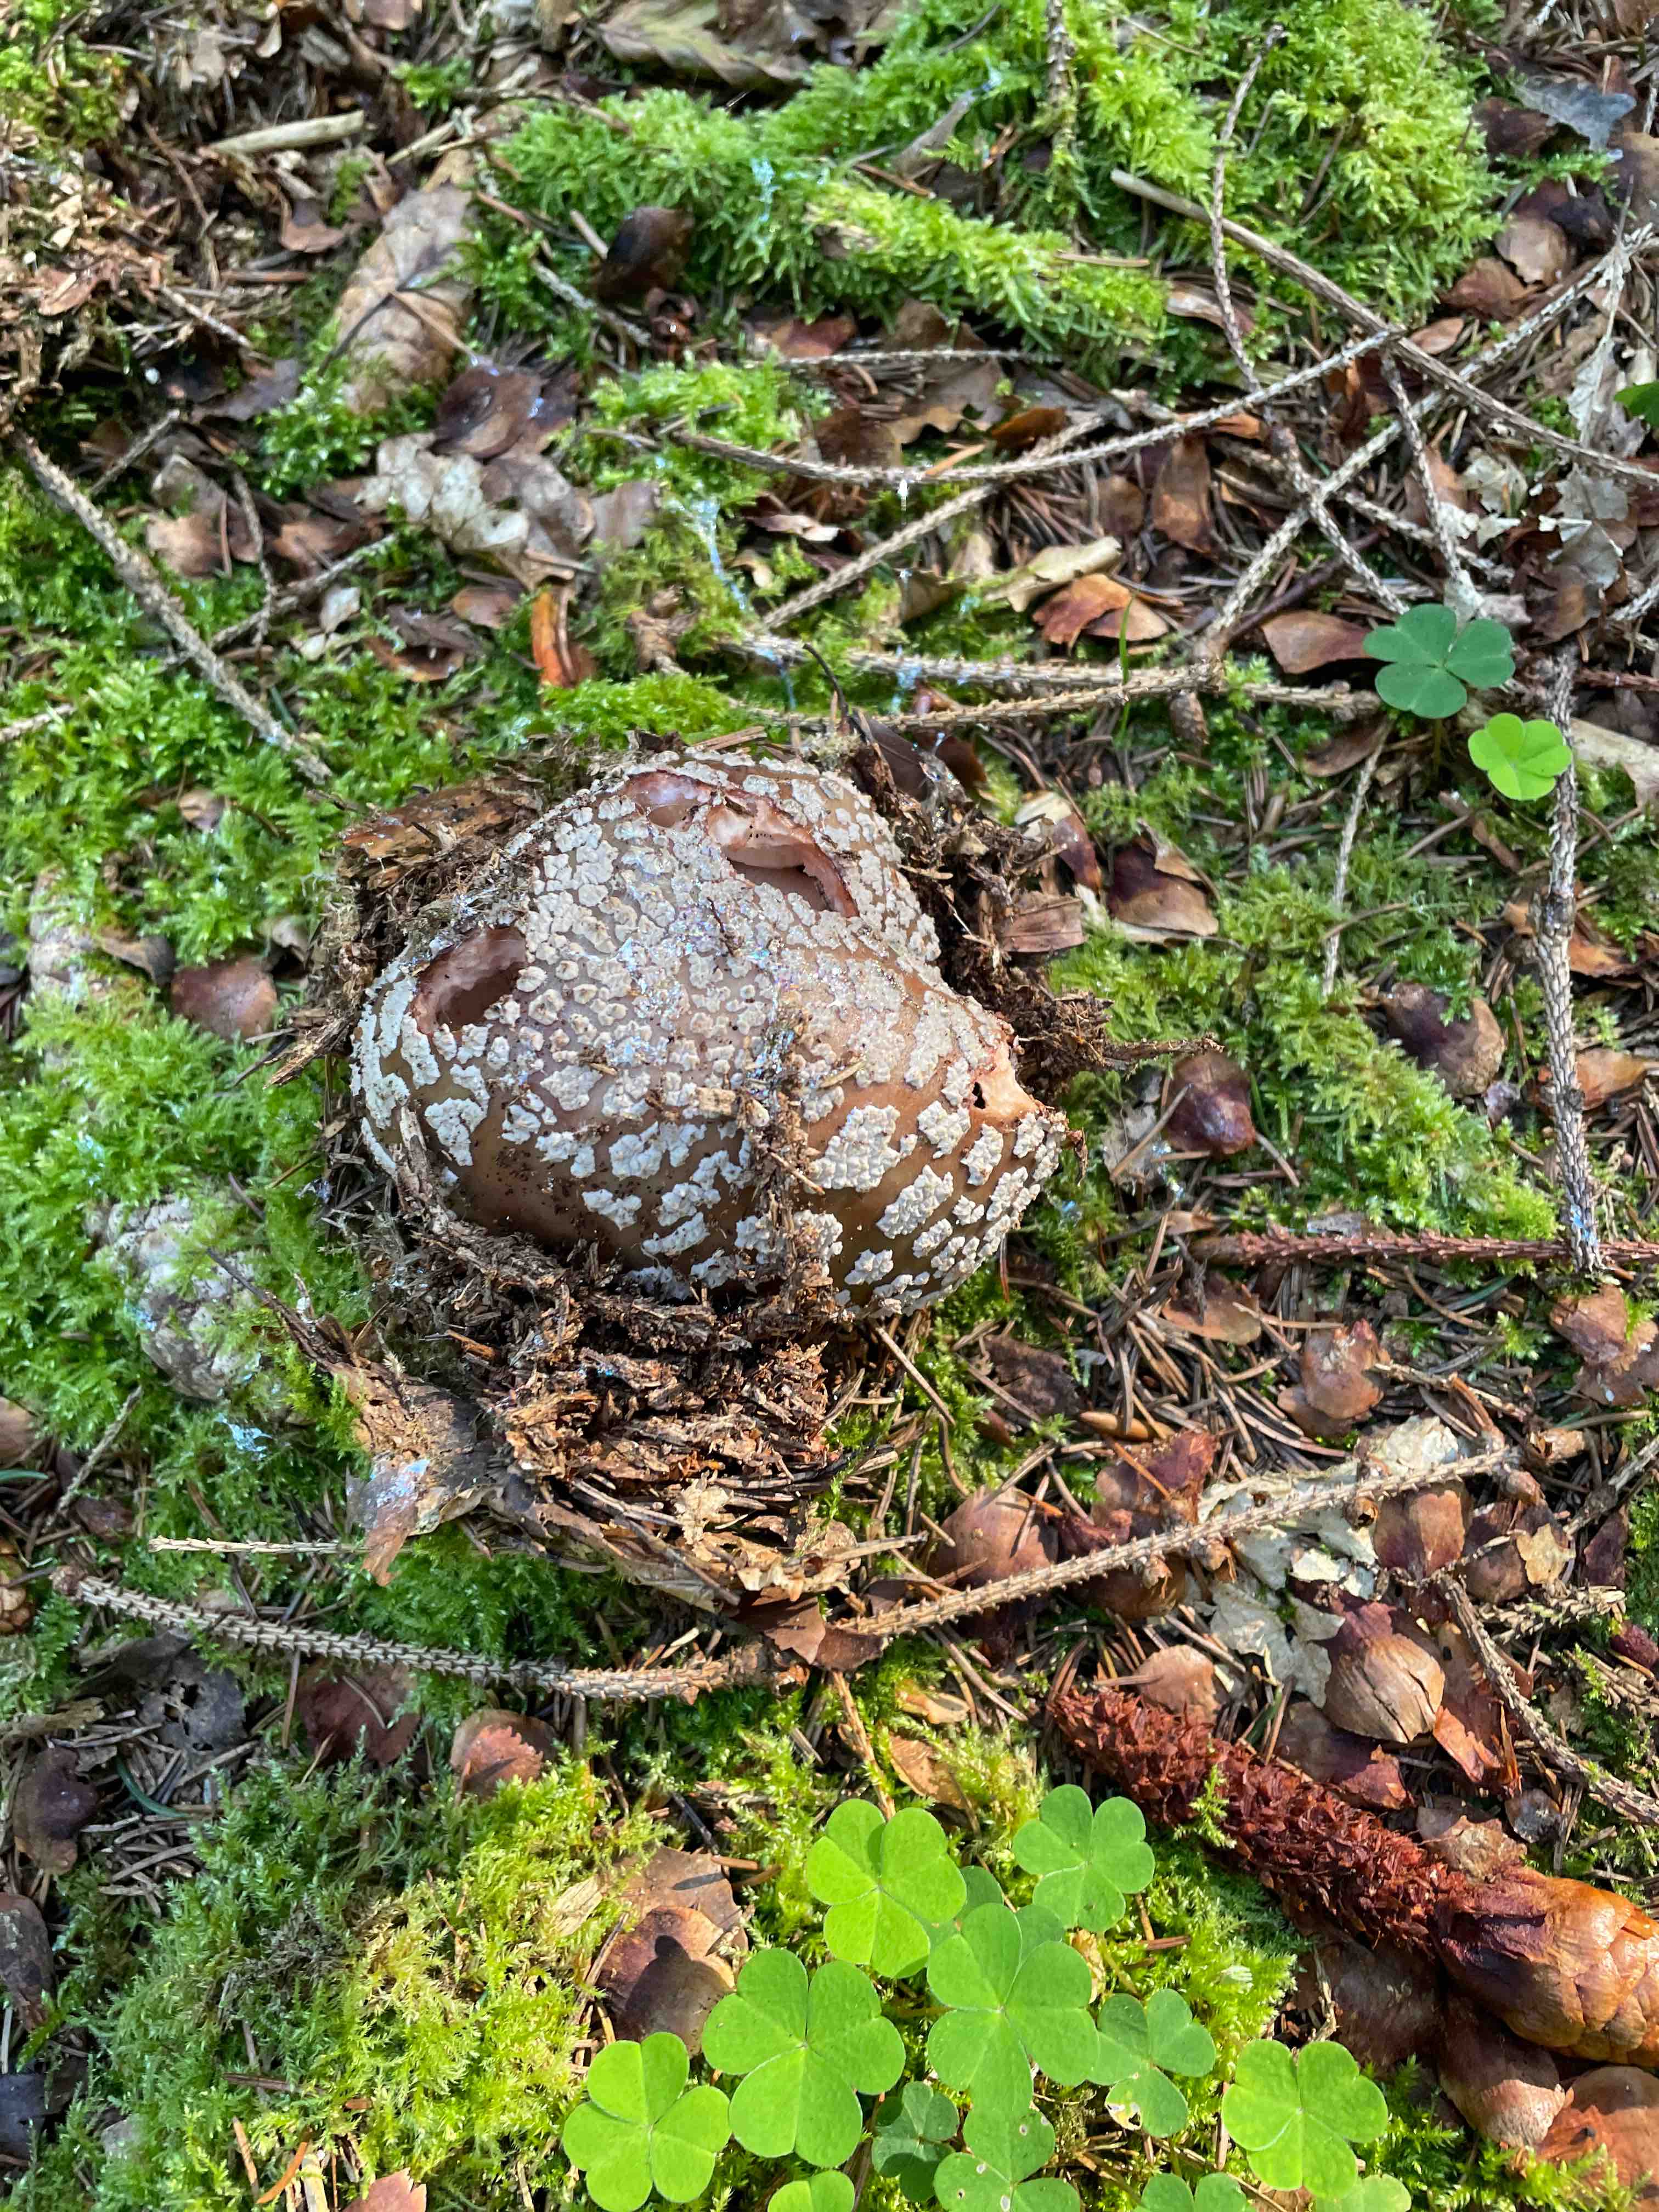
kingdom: Fungi
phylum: Basidiomycota
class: Agaricomycetes
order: Agaricales
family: Amanitaceae
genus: Amanita
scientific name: Amanita
